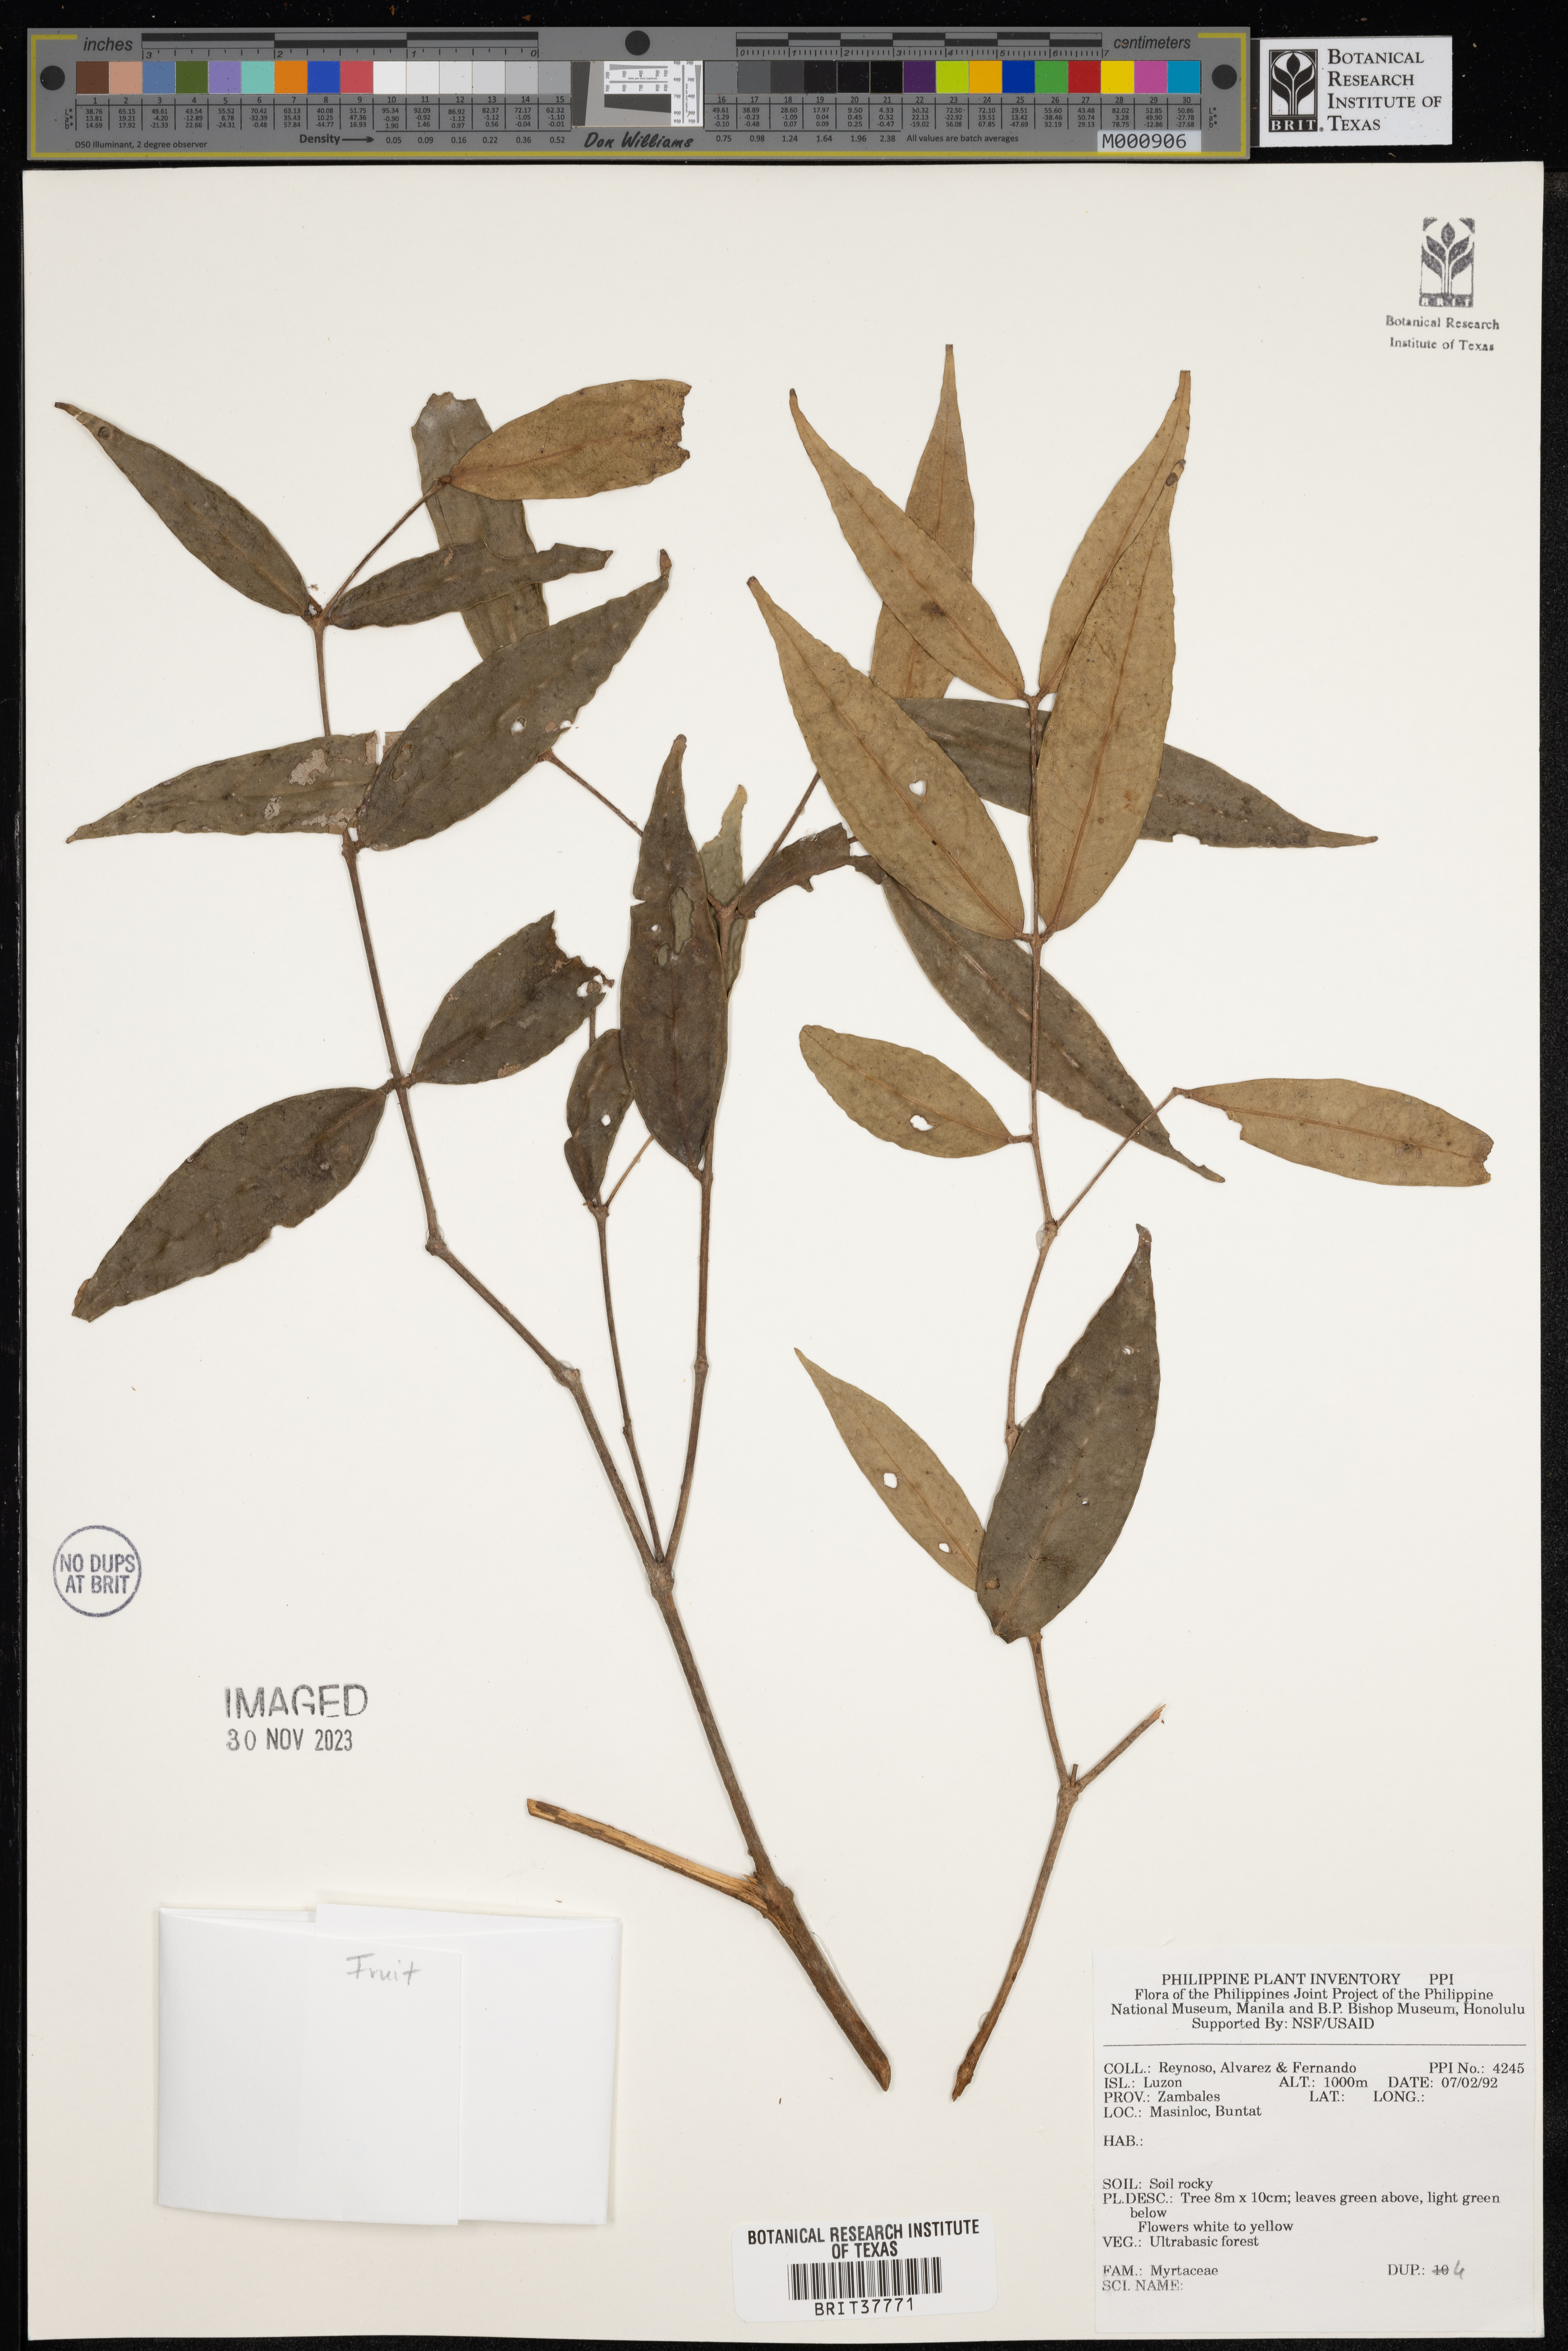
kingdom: Plantae
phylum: Tracheophyta
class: Magnoliopsida
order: Myrtales
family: Myrtaceae
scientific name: Myrtaceae
